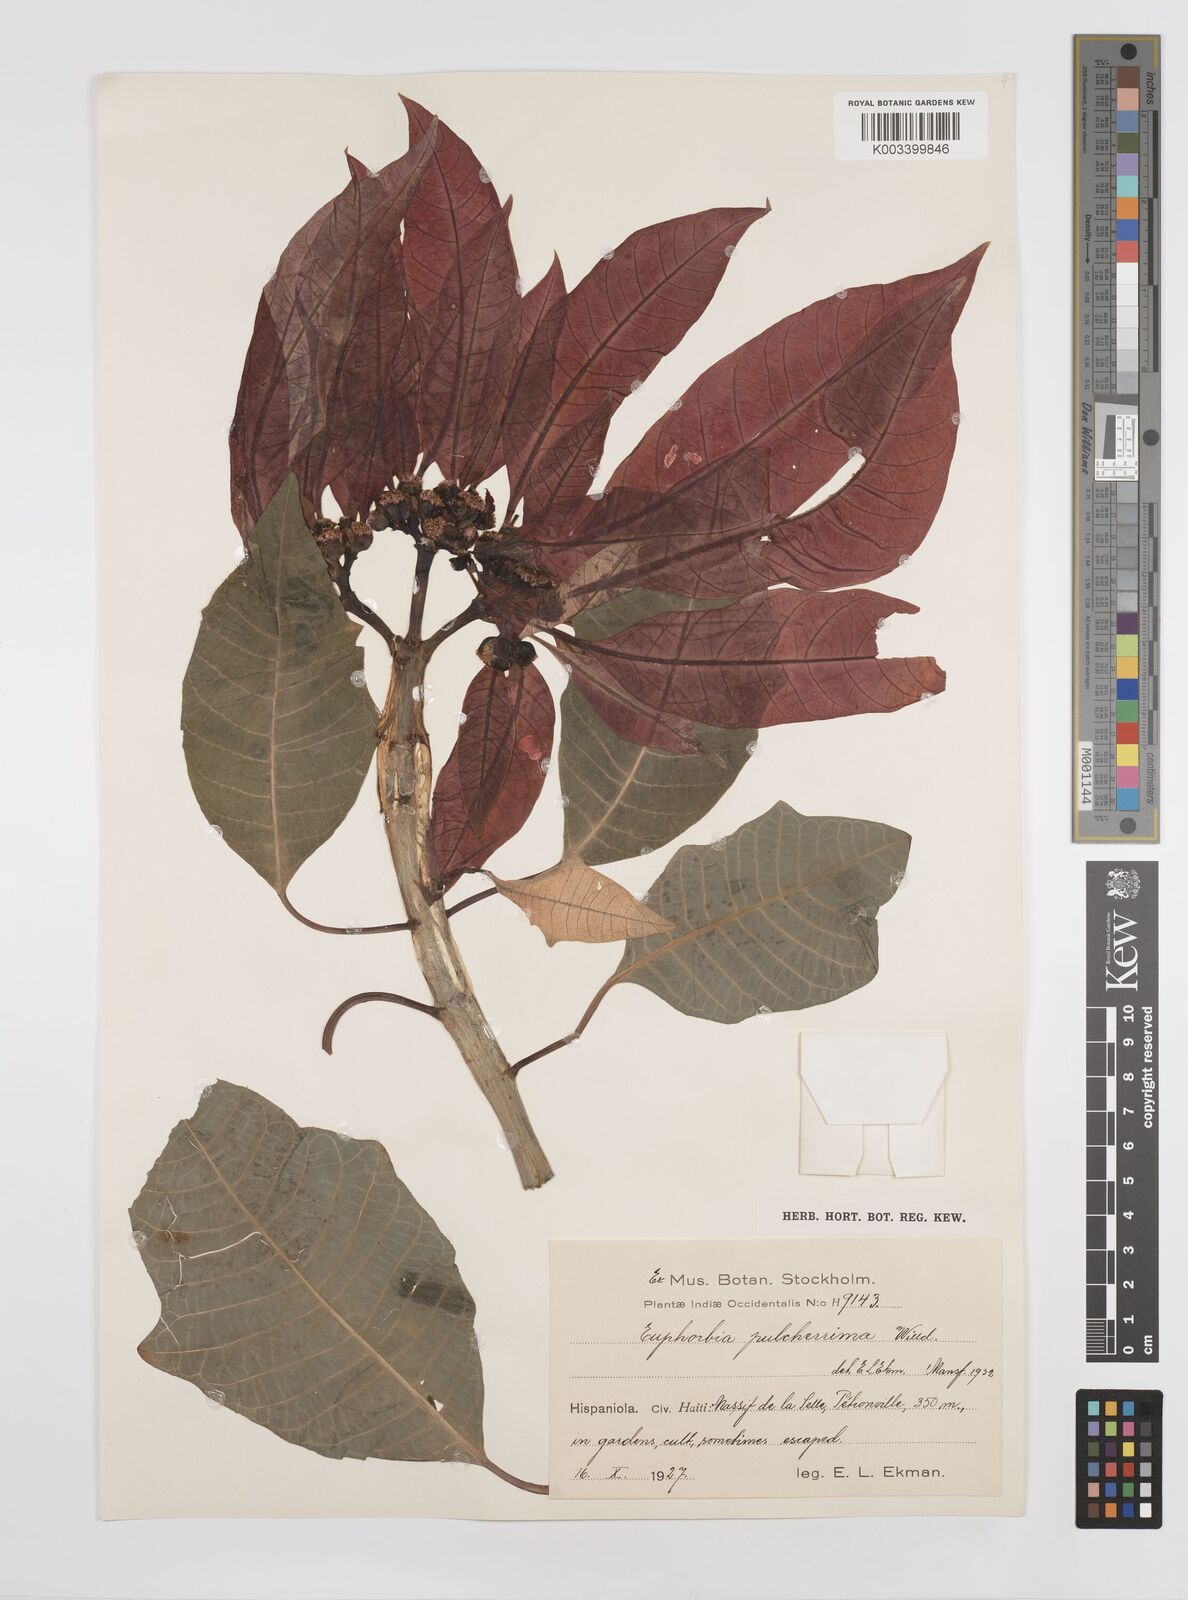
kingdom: Plantae
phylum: Tracheophyta
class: Magnoliopsida
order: Malpighiales
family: Euphorbiaceae
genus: Euphorbia
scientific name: Euphorbia pulcherrima
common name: Christmas-flower
